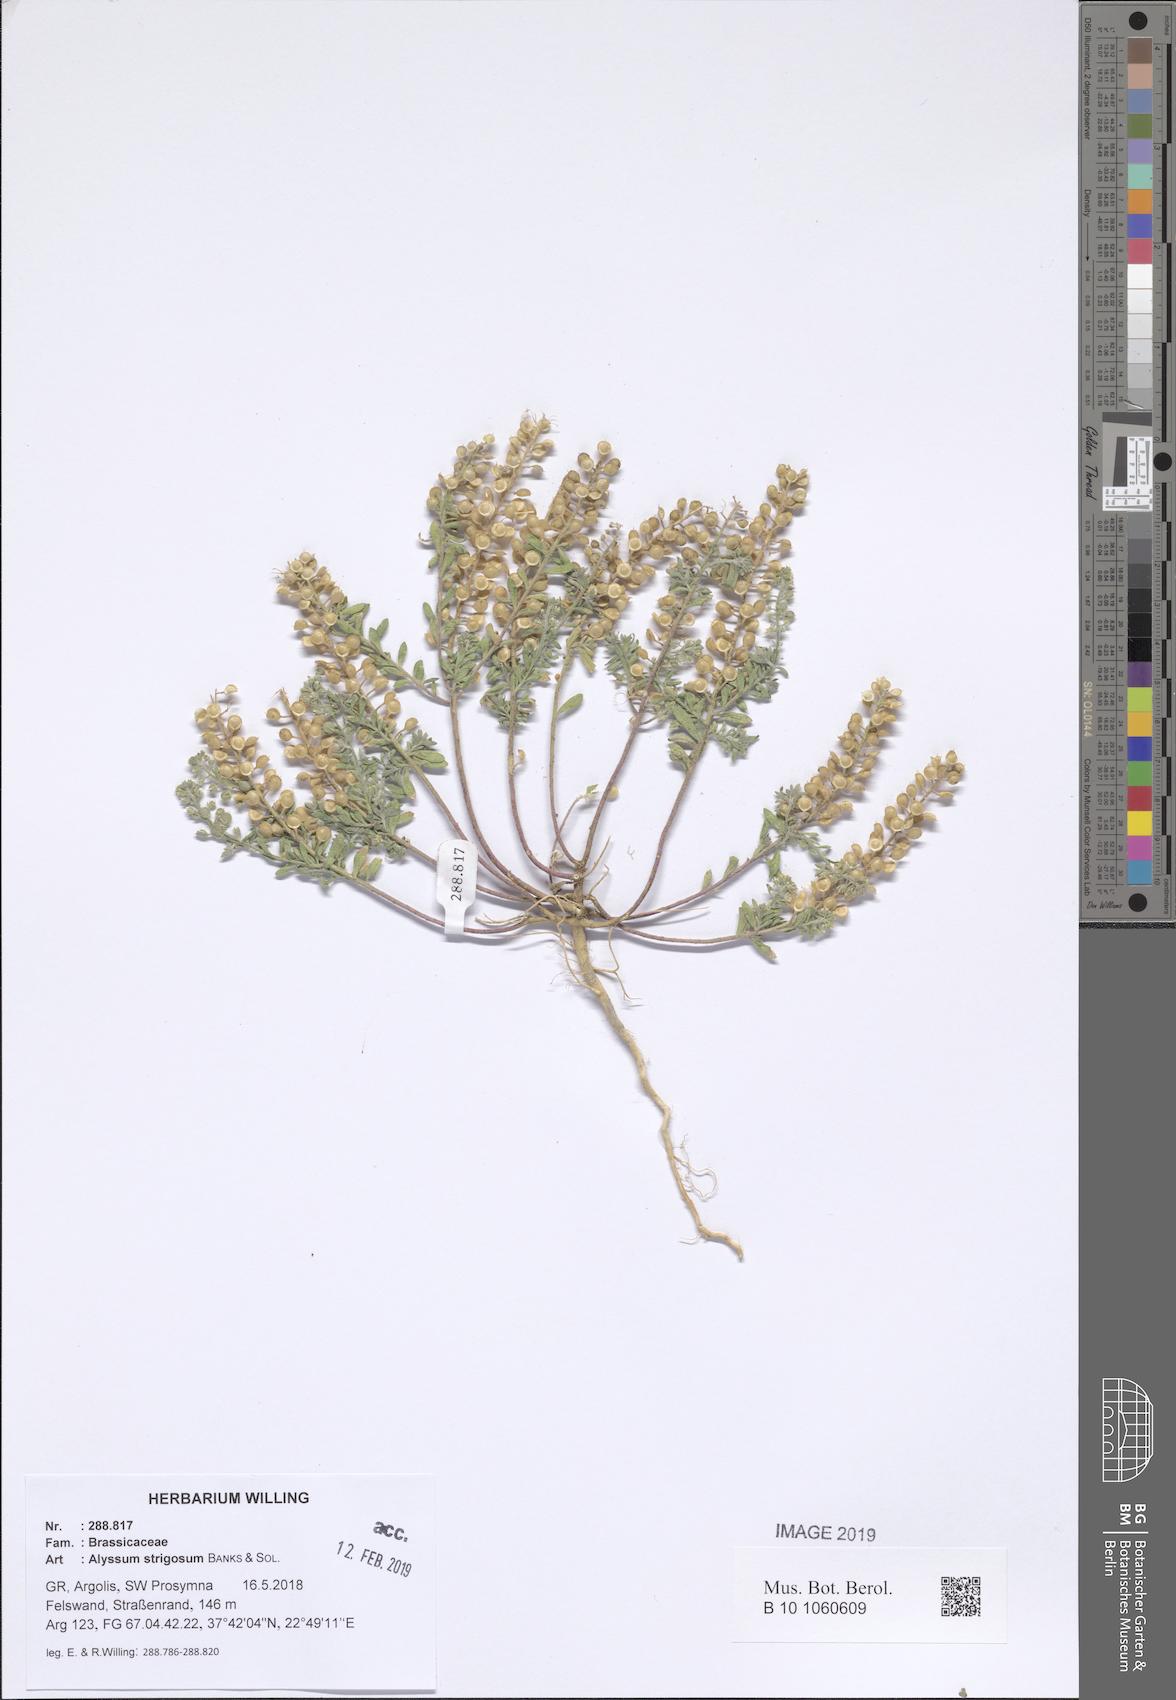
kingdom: Plantae
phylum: Tracheophyta
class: Magnoliopsida
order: Brassicales
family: Brassicaceae
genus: Alyssum
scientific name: Alyssum strigosum
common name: Alyssum
